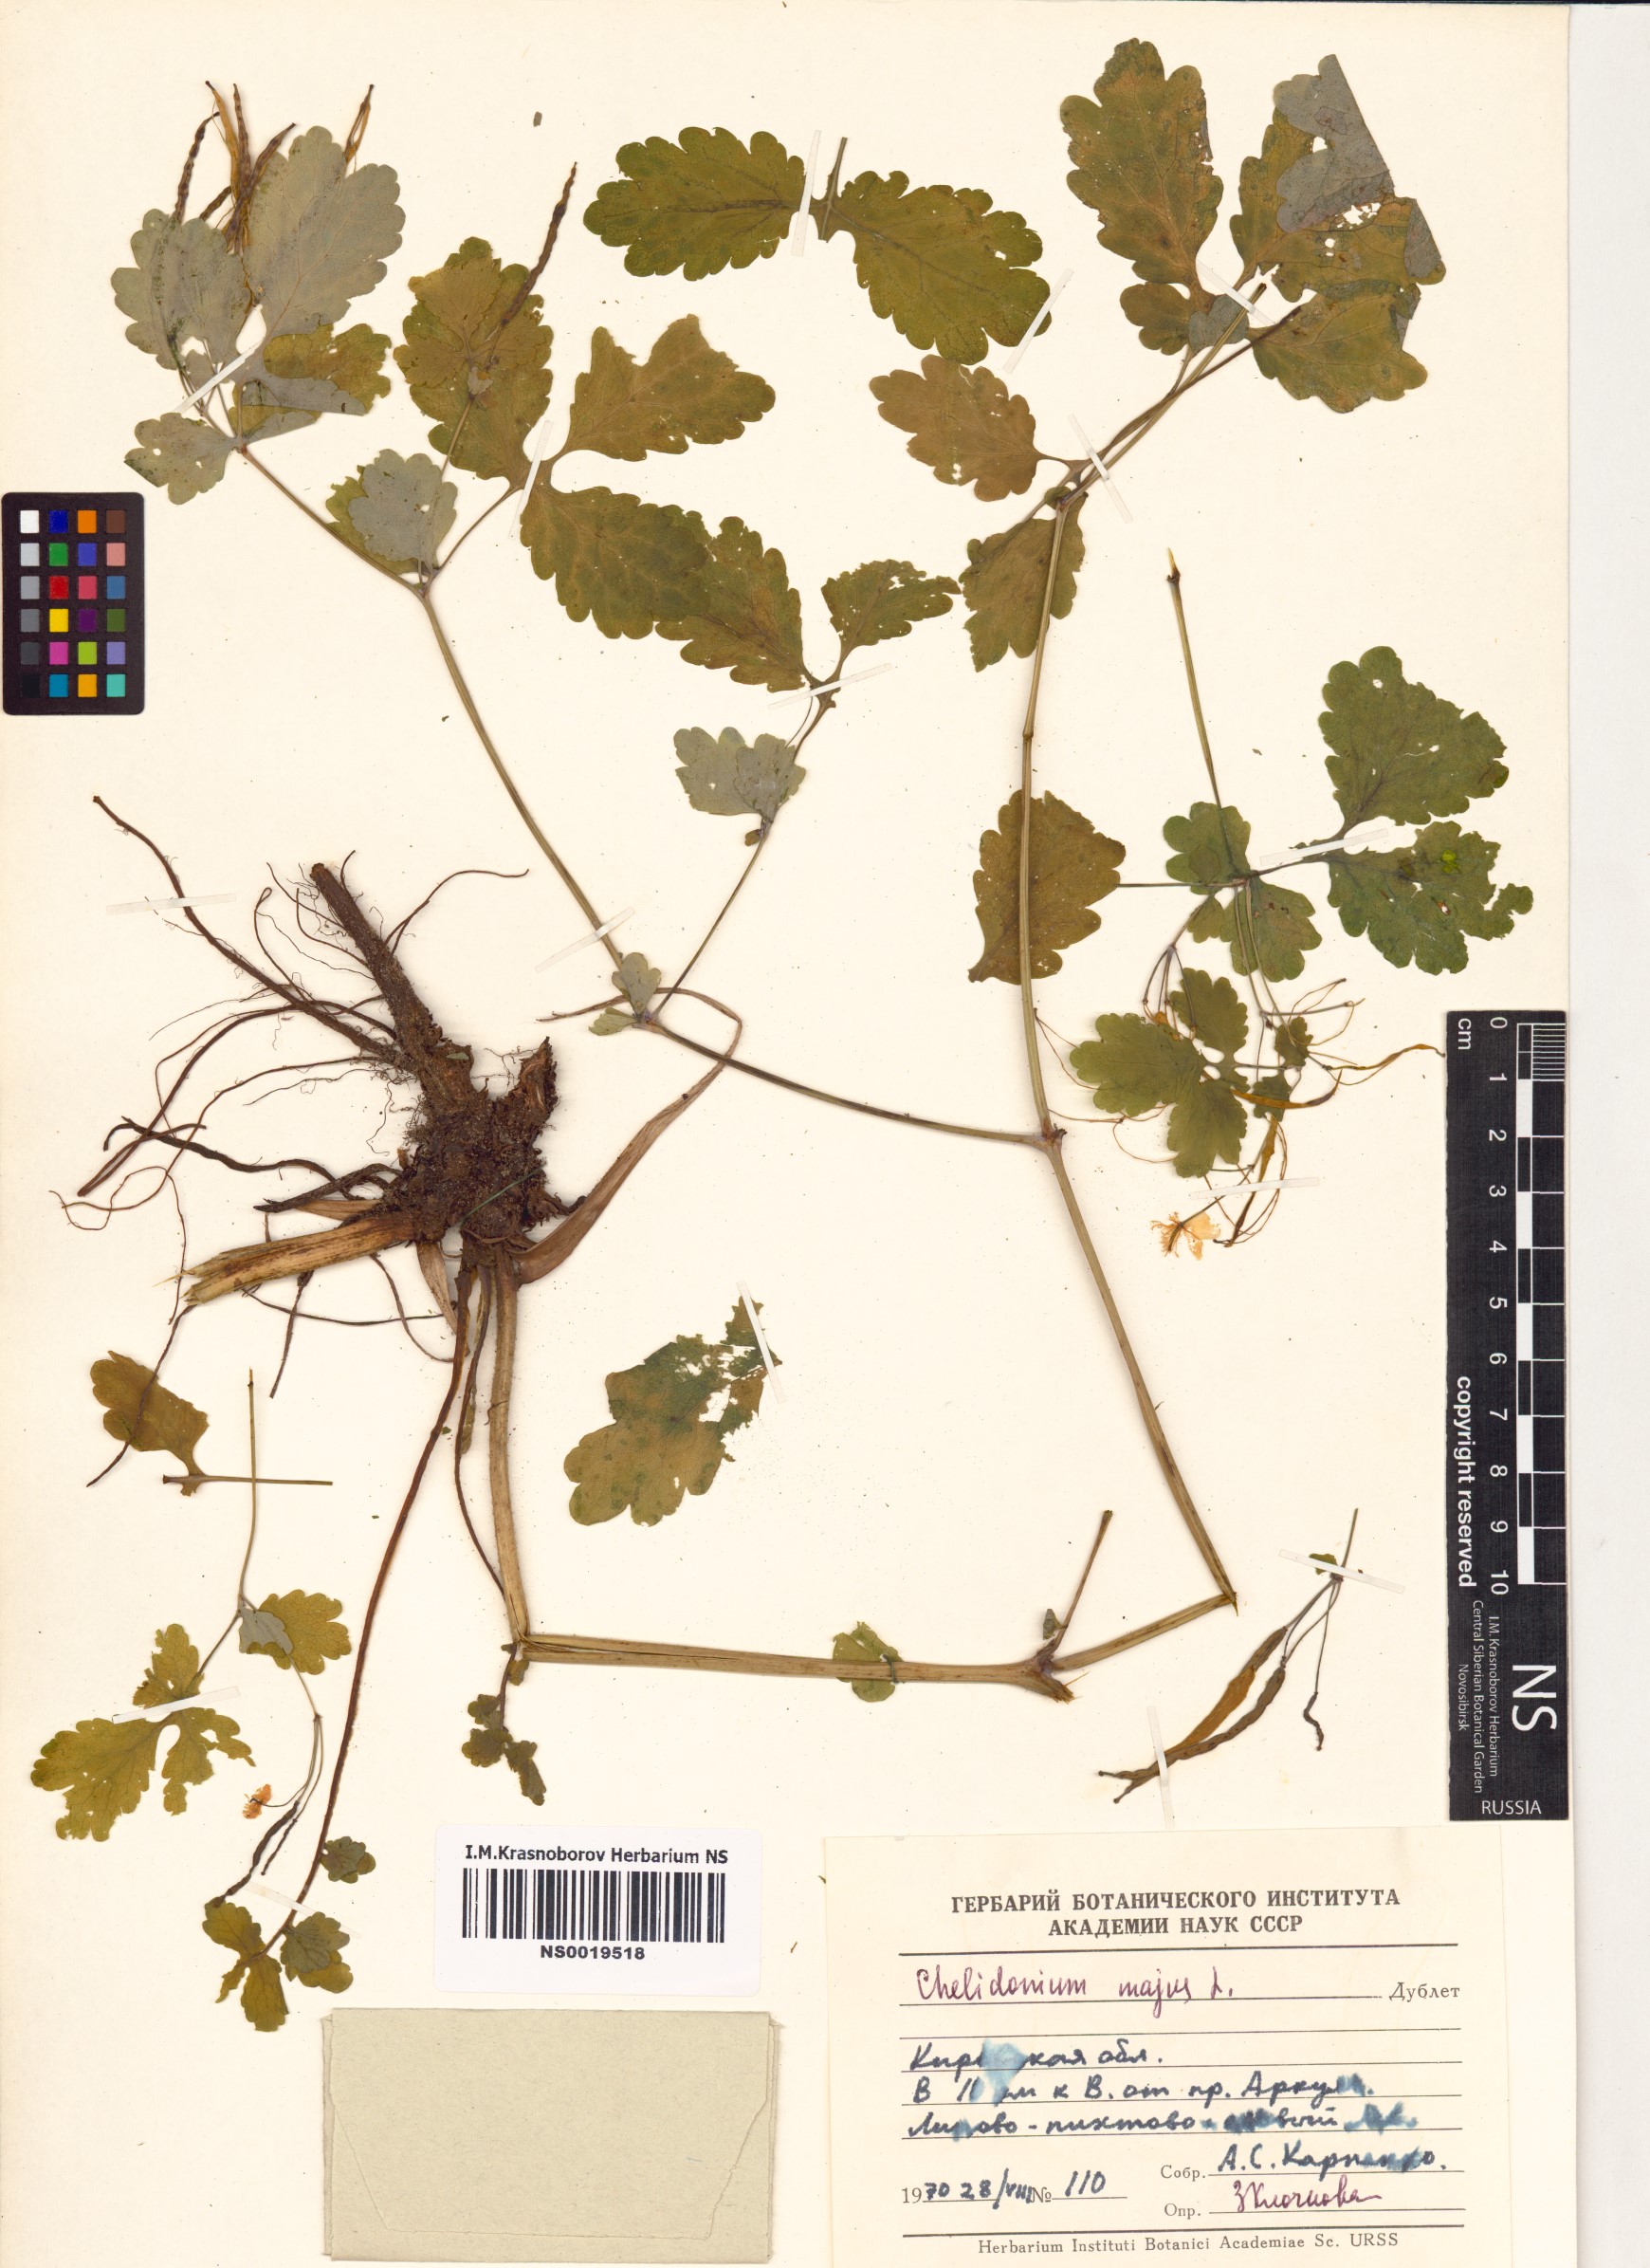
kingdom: Plantae
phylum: Tracheophyta
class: Magnoliopsida
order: Ranunculales
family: Papaveraceae
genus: Chelidonium
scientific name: Chelidonium majus
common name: Greater celandine
